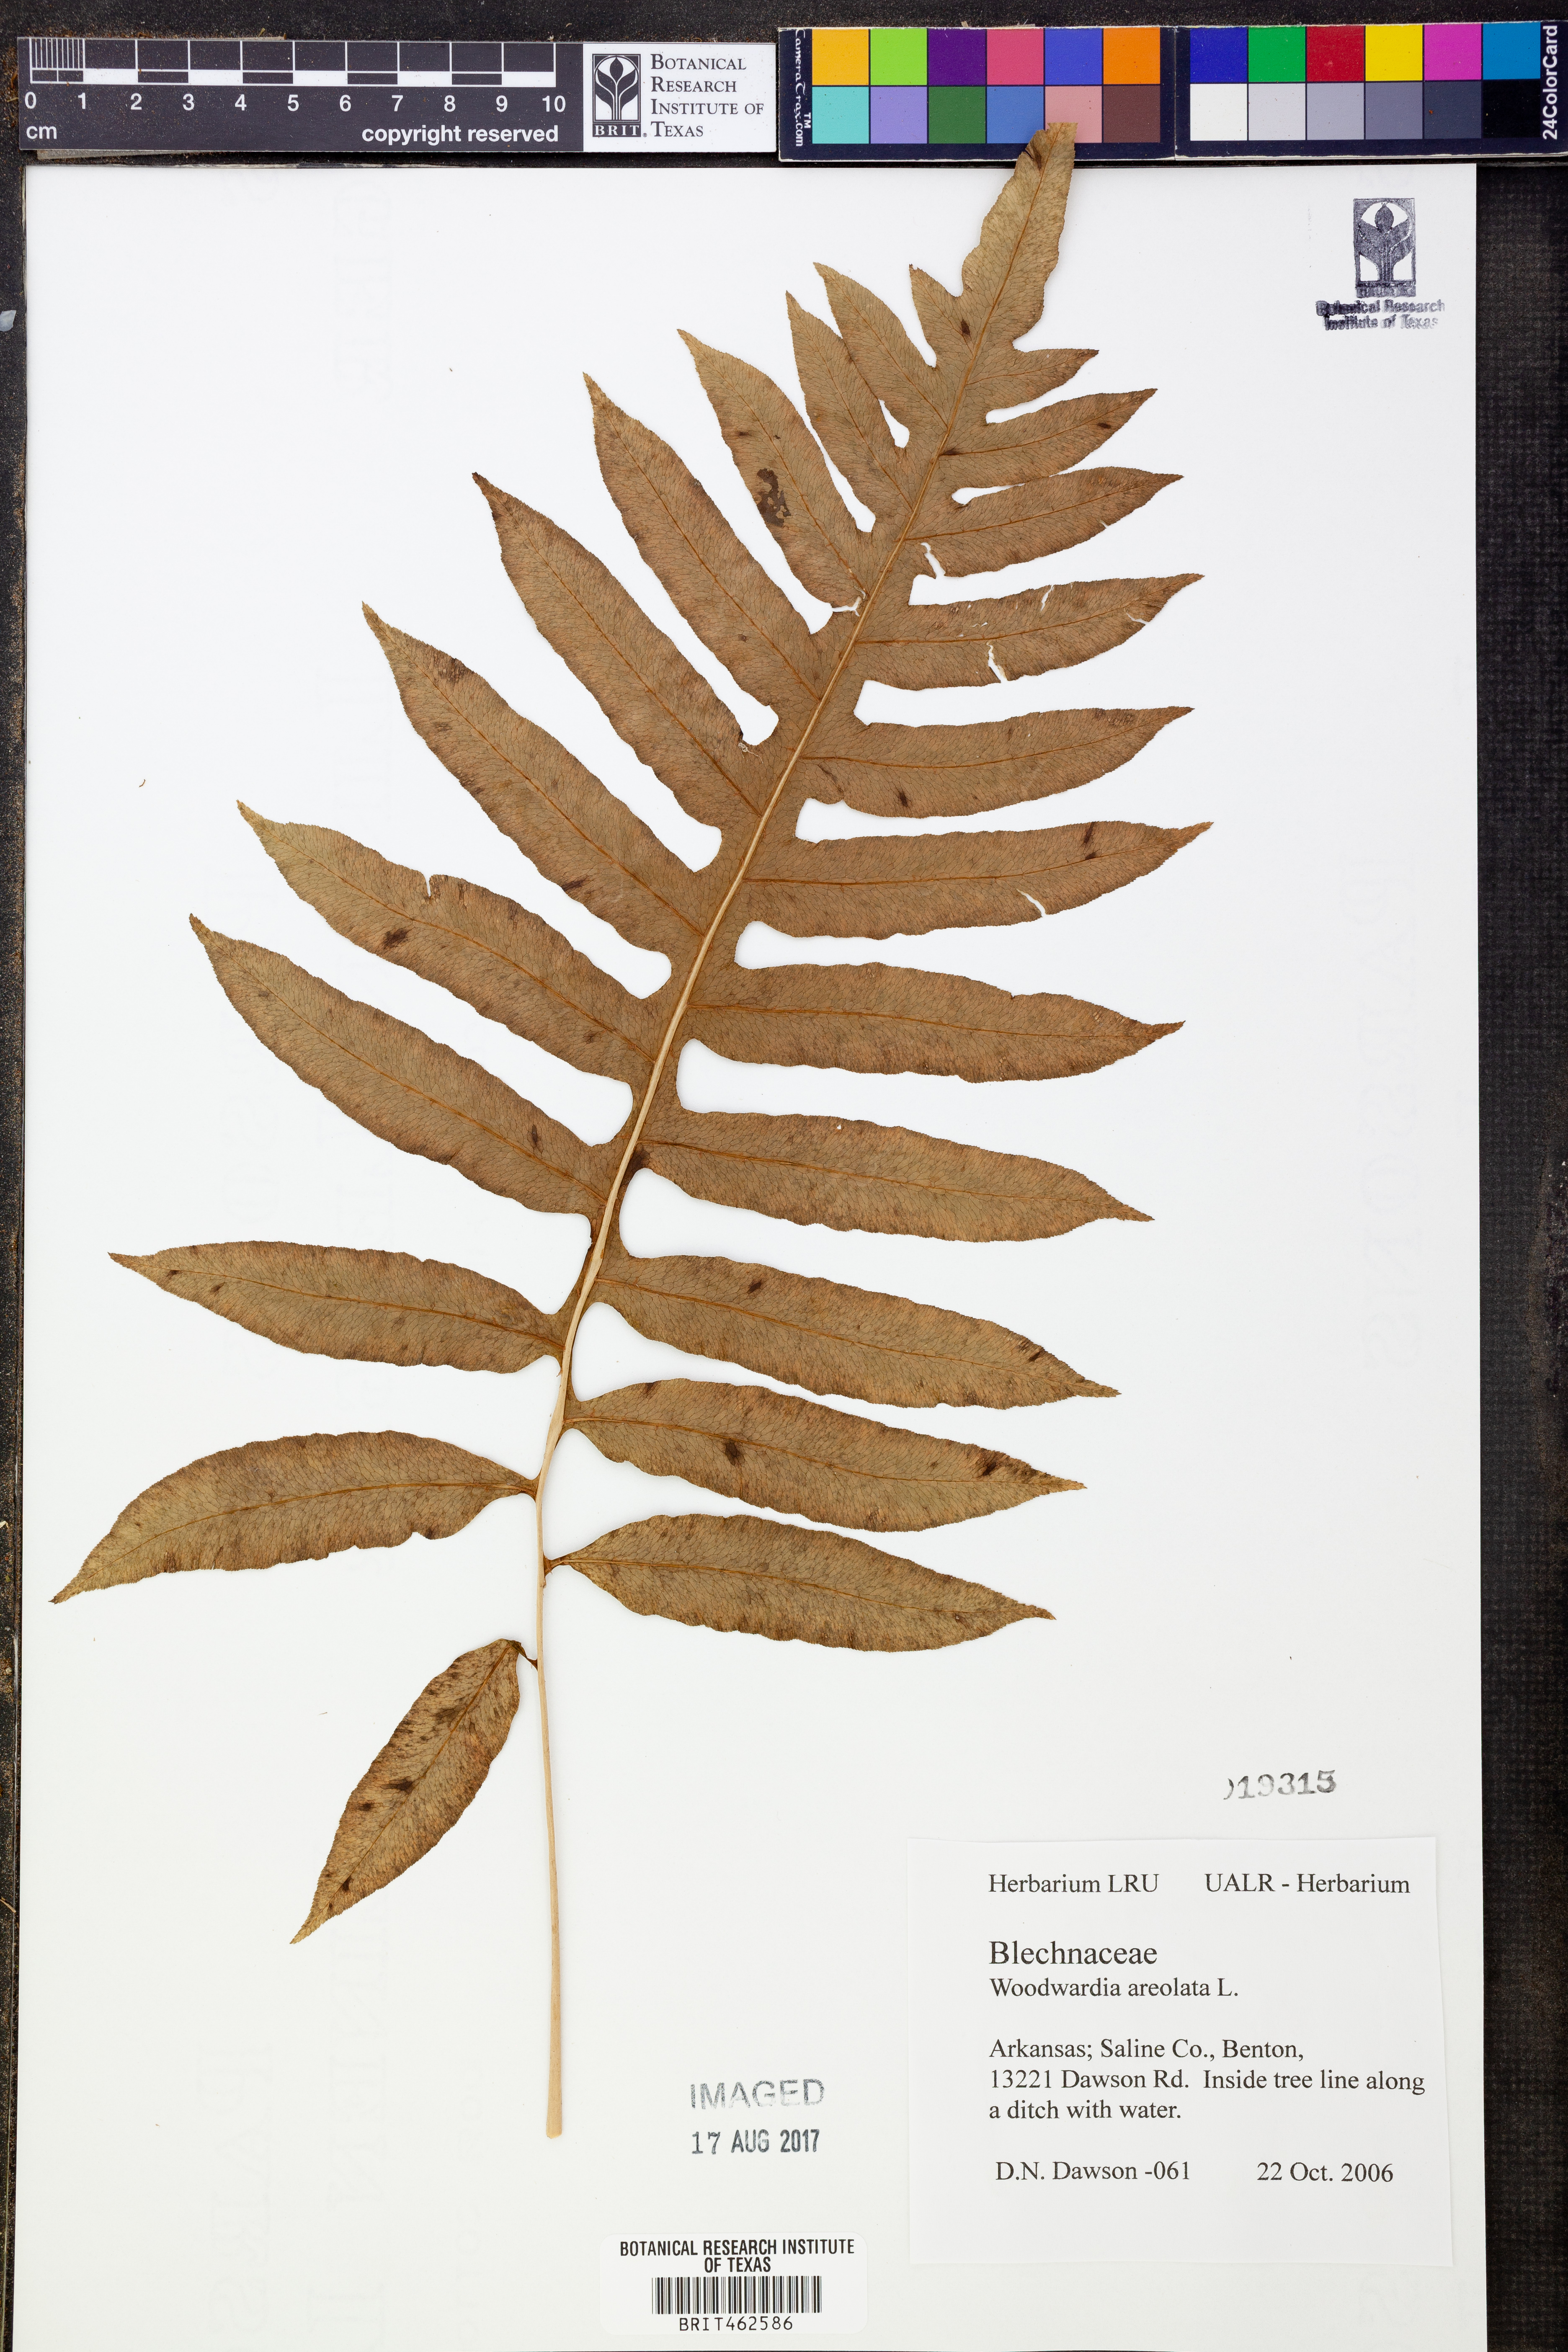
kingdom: Plantae
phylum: Tracheophyta
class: Polypodiopsida
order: Polypodiales
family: Blechnaceae
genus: Lorinseria
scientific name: Lorinseria areolata
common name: Dwarf chain fern
